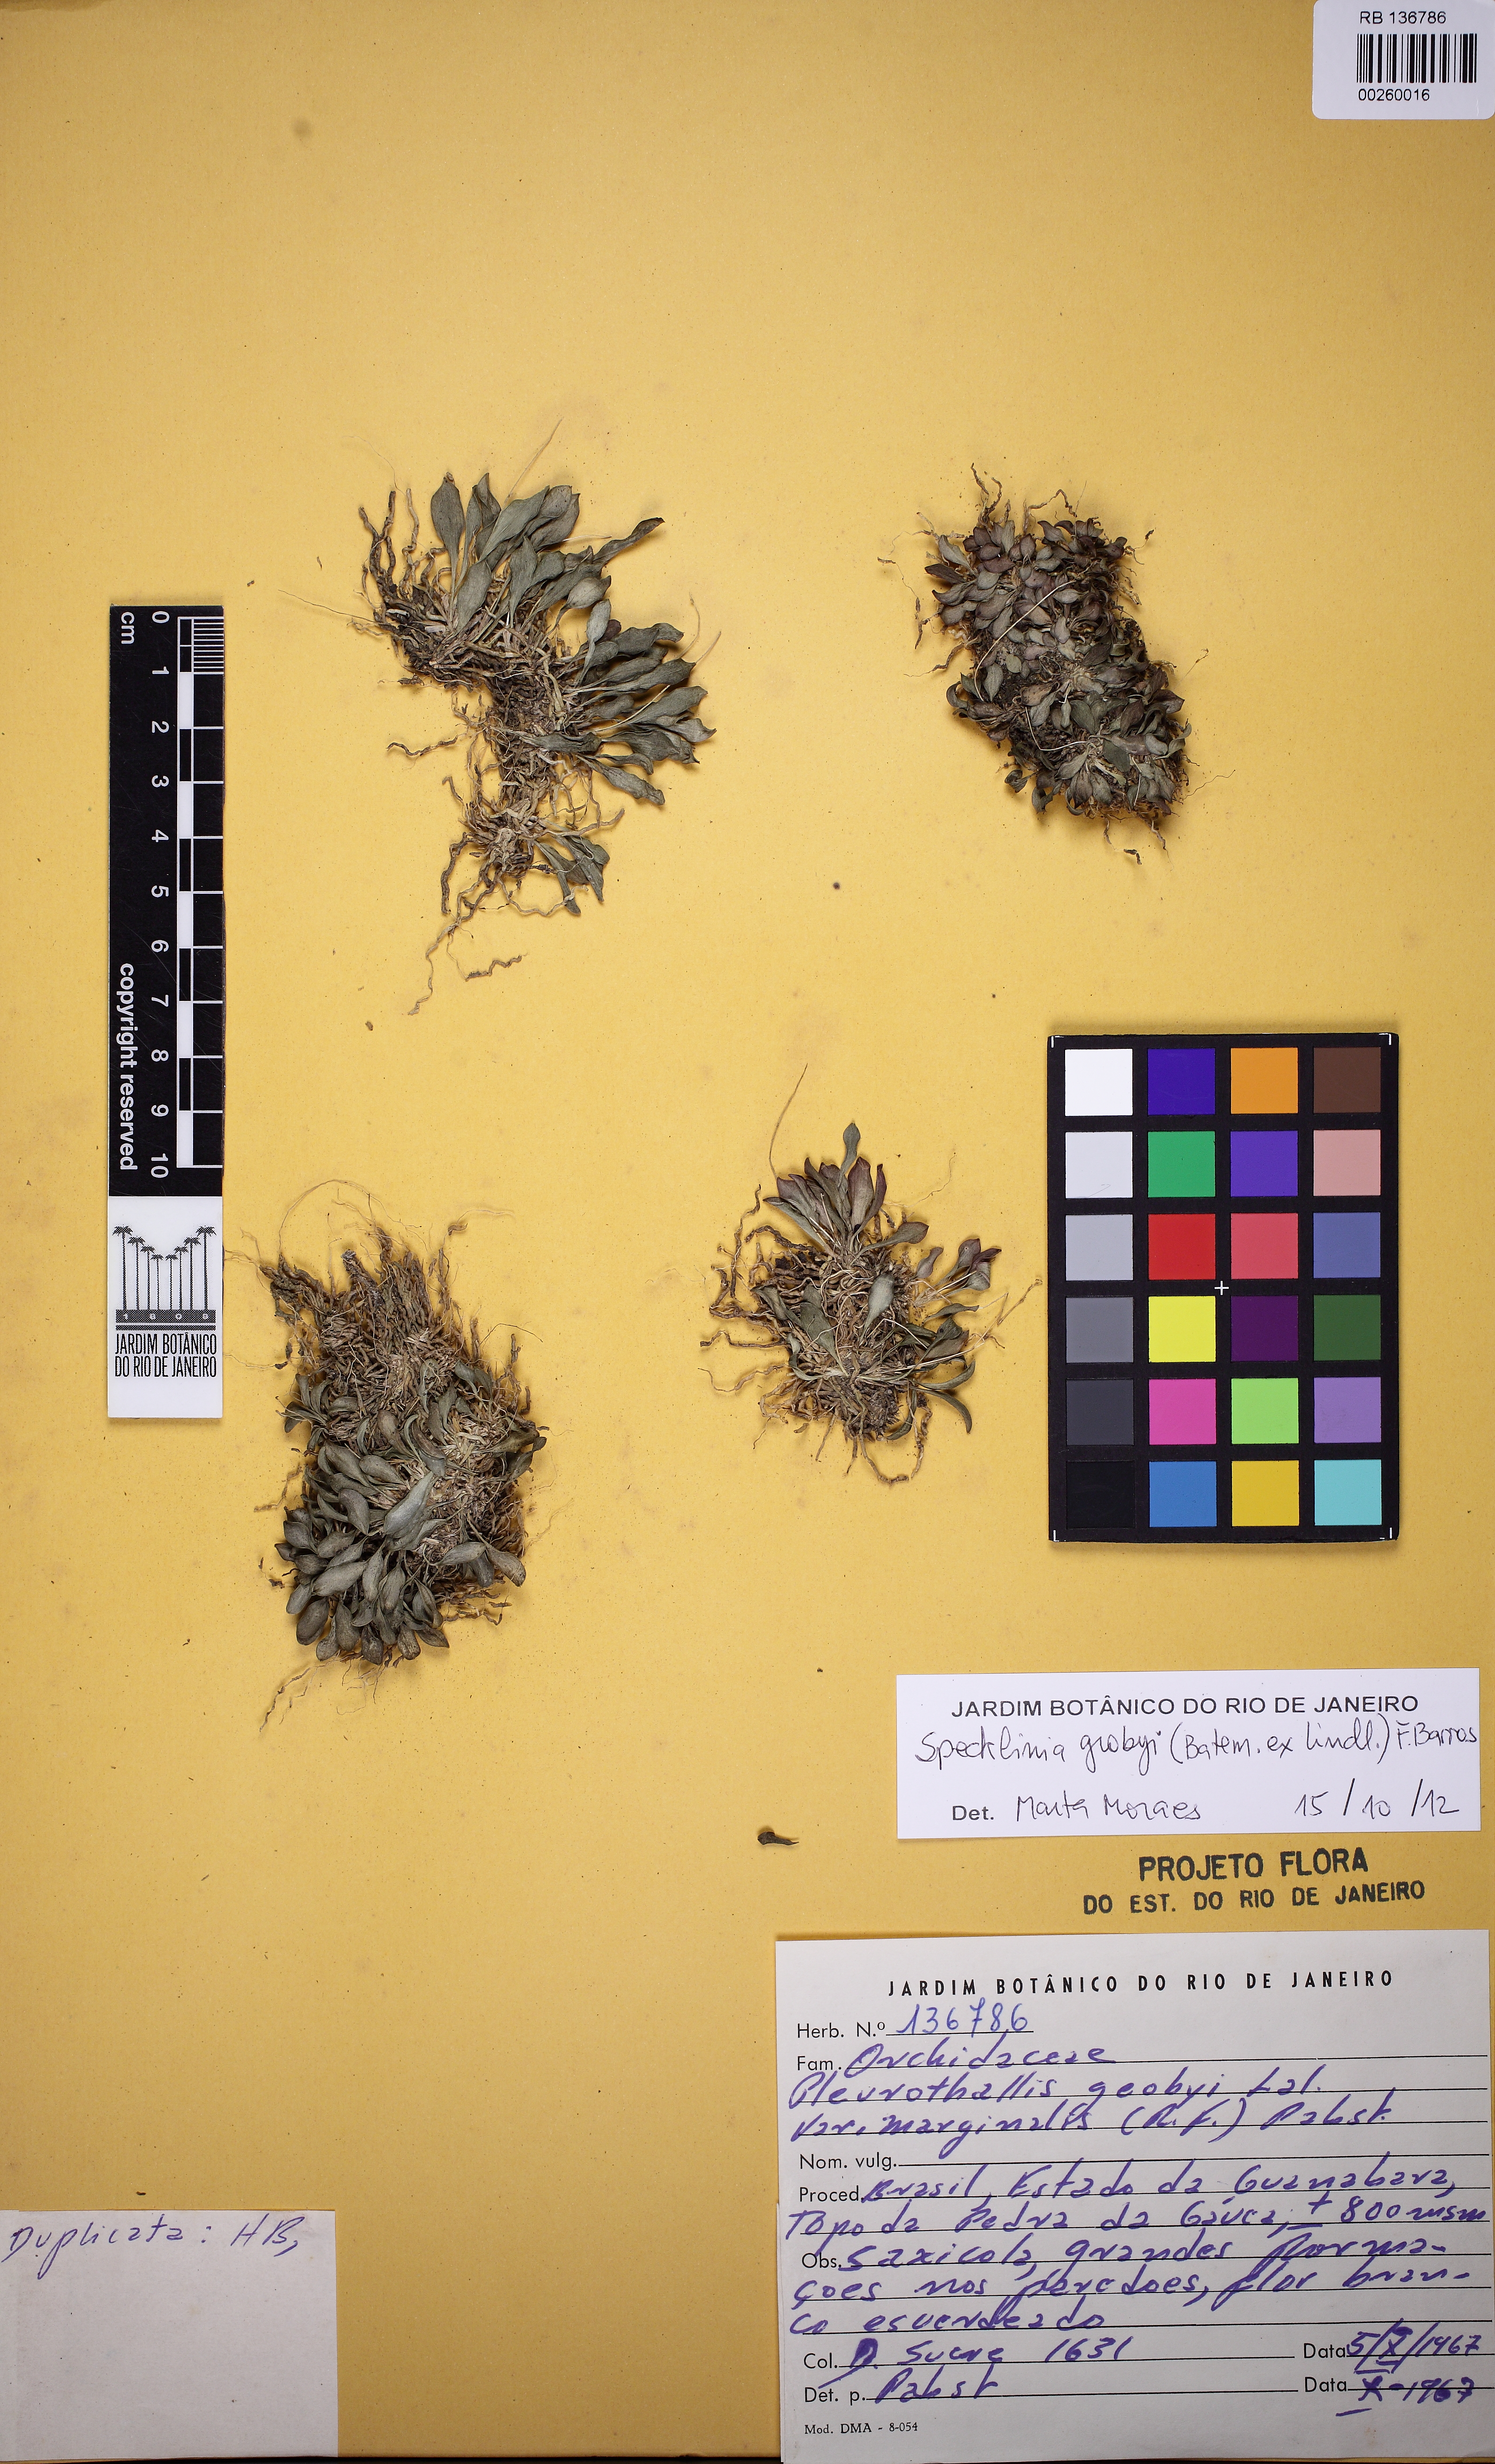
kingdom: Plantae
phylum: Tracheophyta
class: Liliopsida
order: Asparagales
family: Orchidaceae
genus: Specklinia
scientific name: Specklinia grobyi
